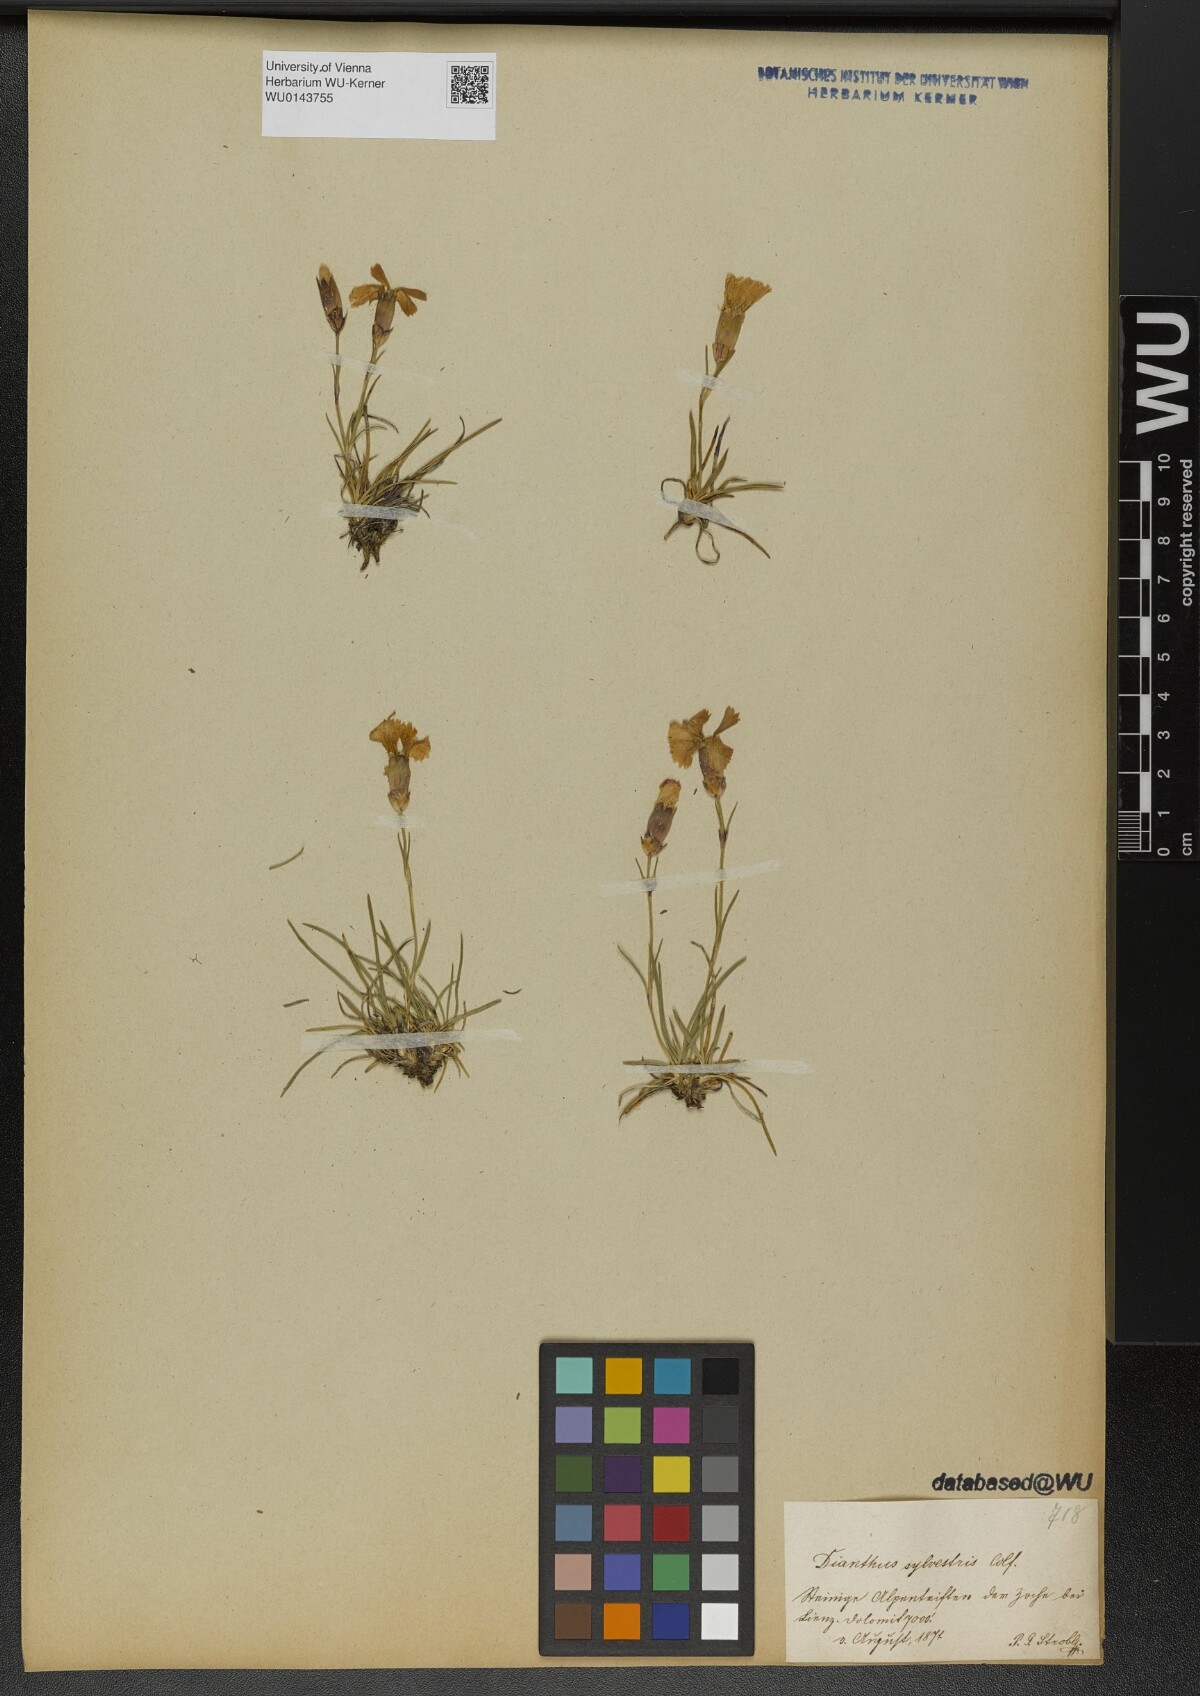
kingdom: Plantae
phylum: Tracheophyta
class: Magnoliopsida
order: Caryophyllales
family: Caryophyllaceae
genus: Dianthus
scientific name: Dianthus sylvestris
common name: Wood pink
